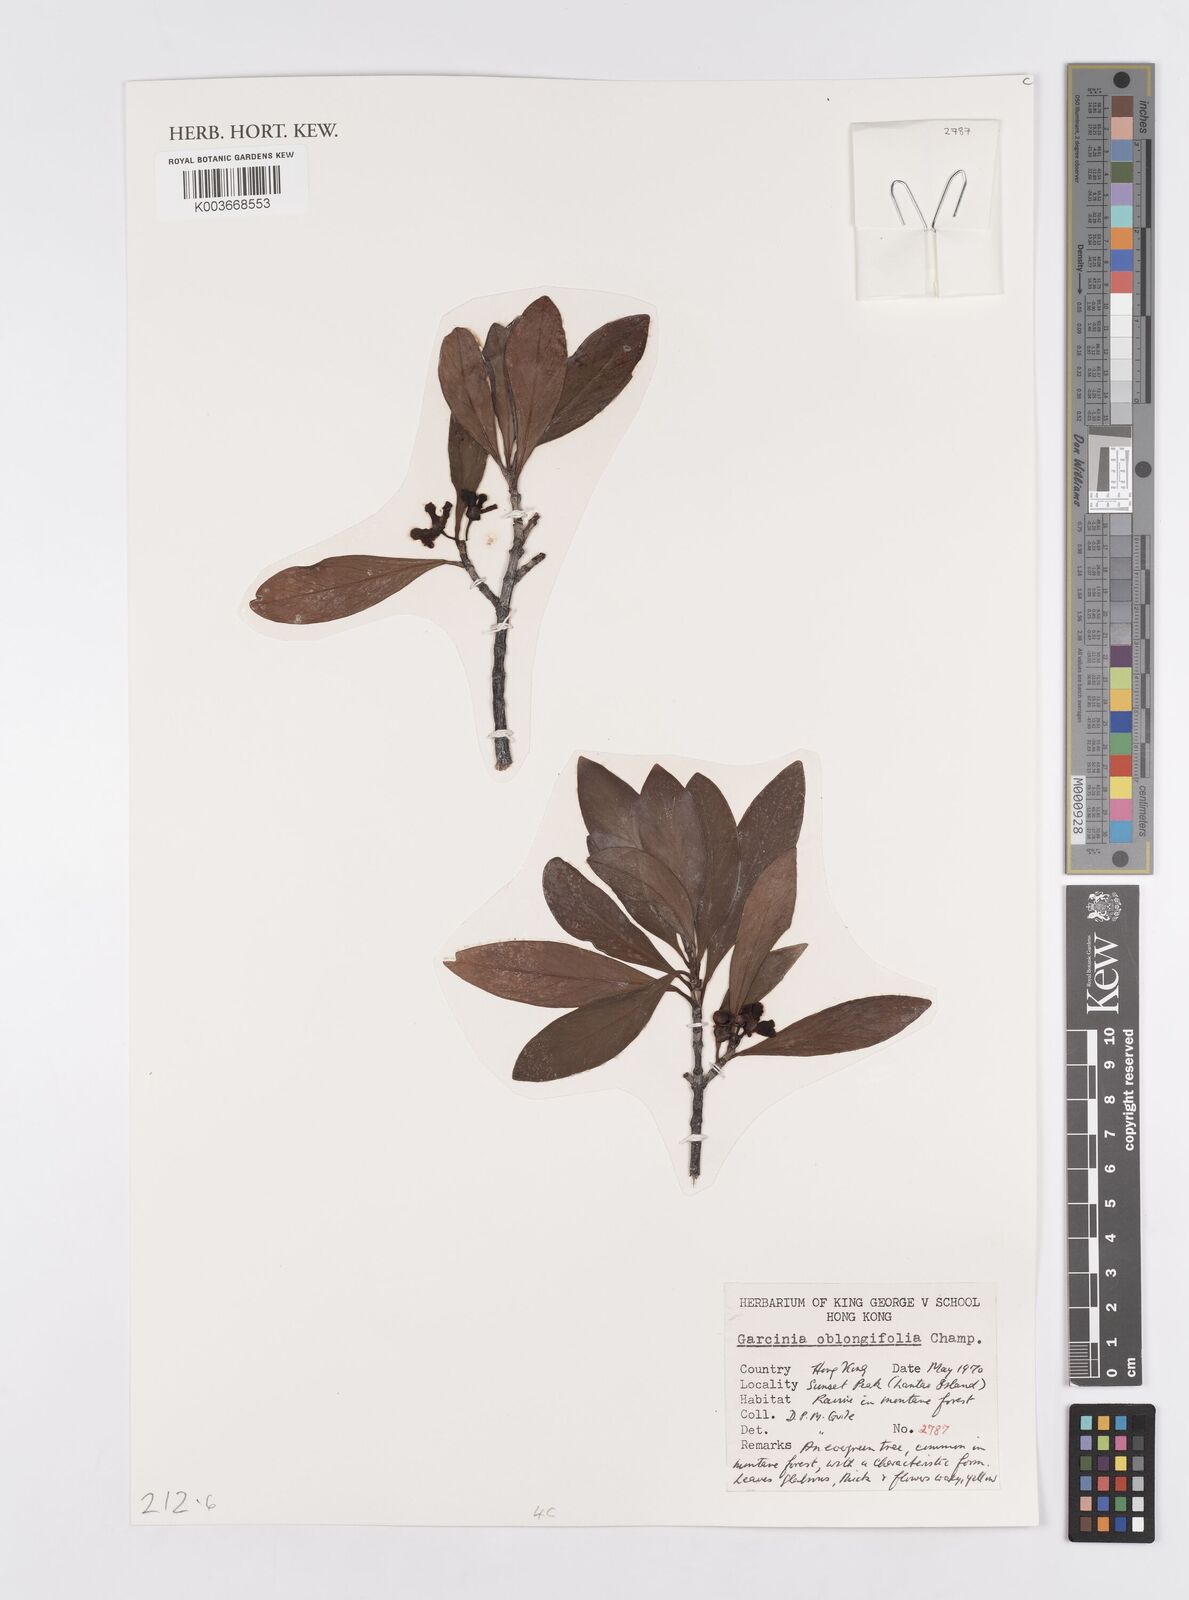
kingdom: Plantae
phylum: Tracheophyta
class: Magnoliopsida
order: Malpighiales
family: Clusiaceae
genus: Garcinia
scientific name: Garcinia oblongifolia
